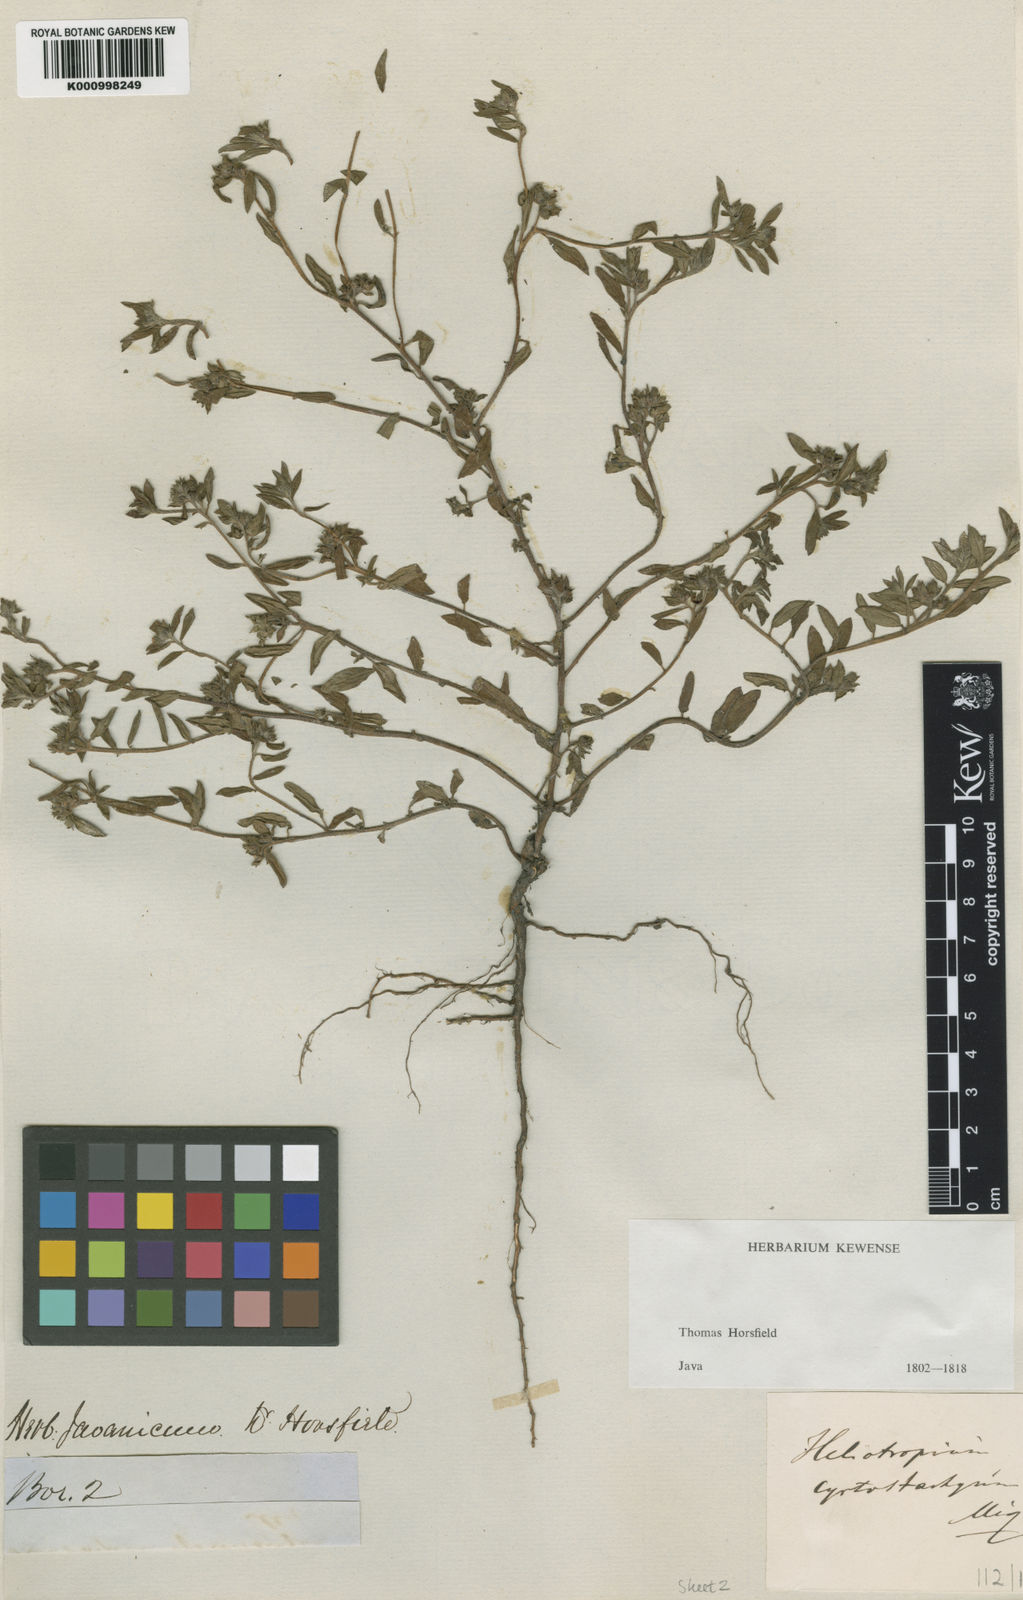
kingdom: Plantae
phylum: Tracheophyta
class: Magnoliopsida
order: Boraginales
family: Heliotropiaceae
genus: Euploca
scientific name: Euploca bracteata
